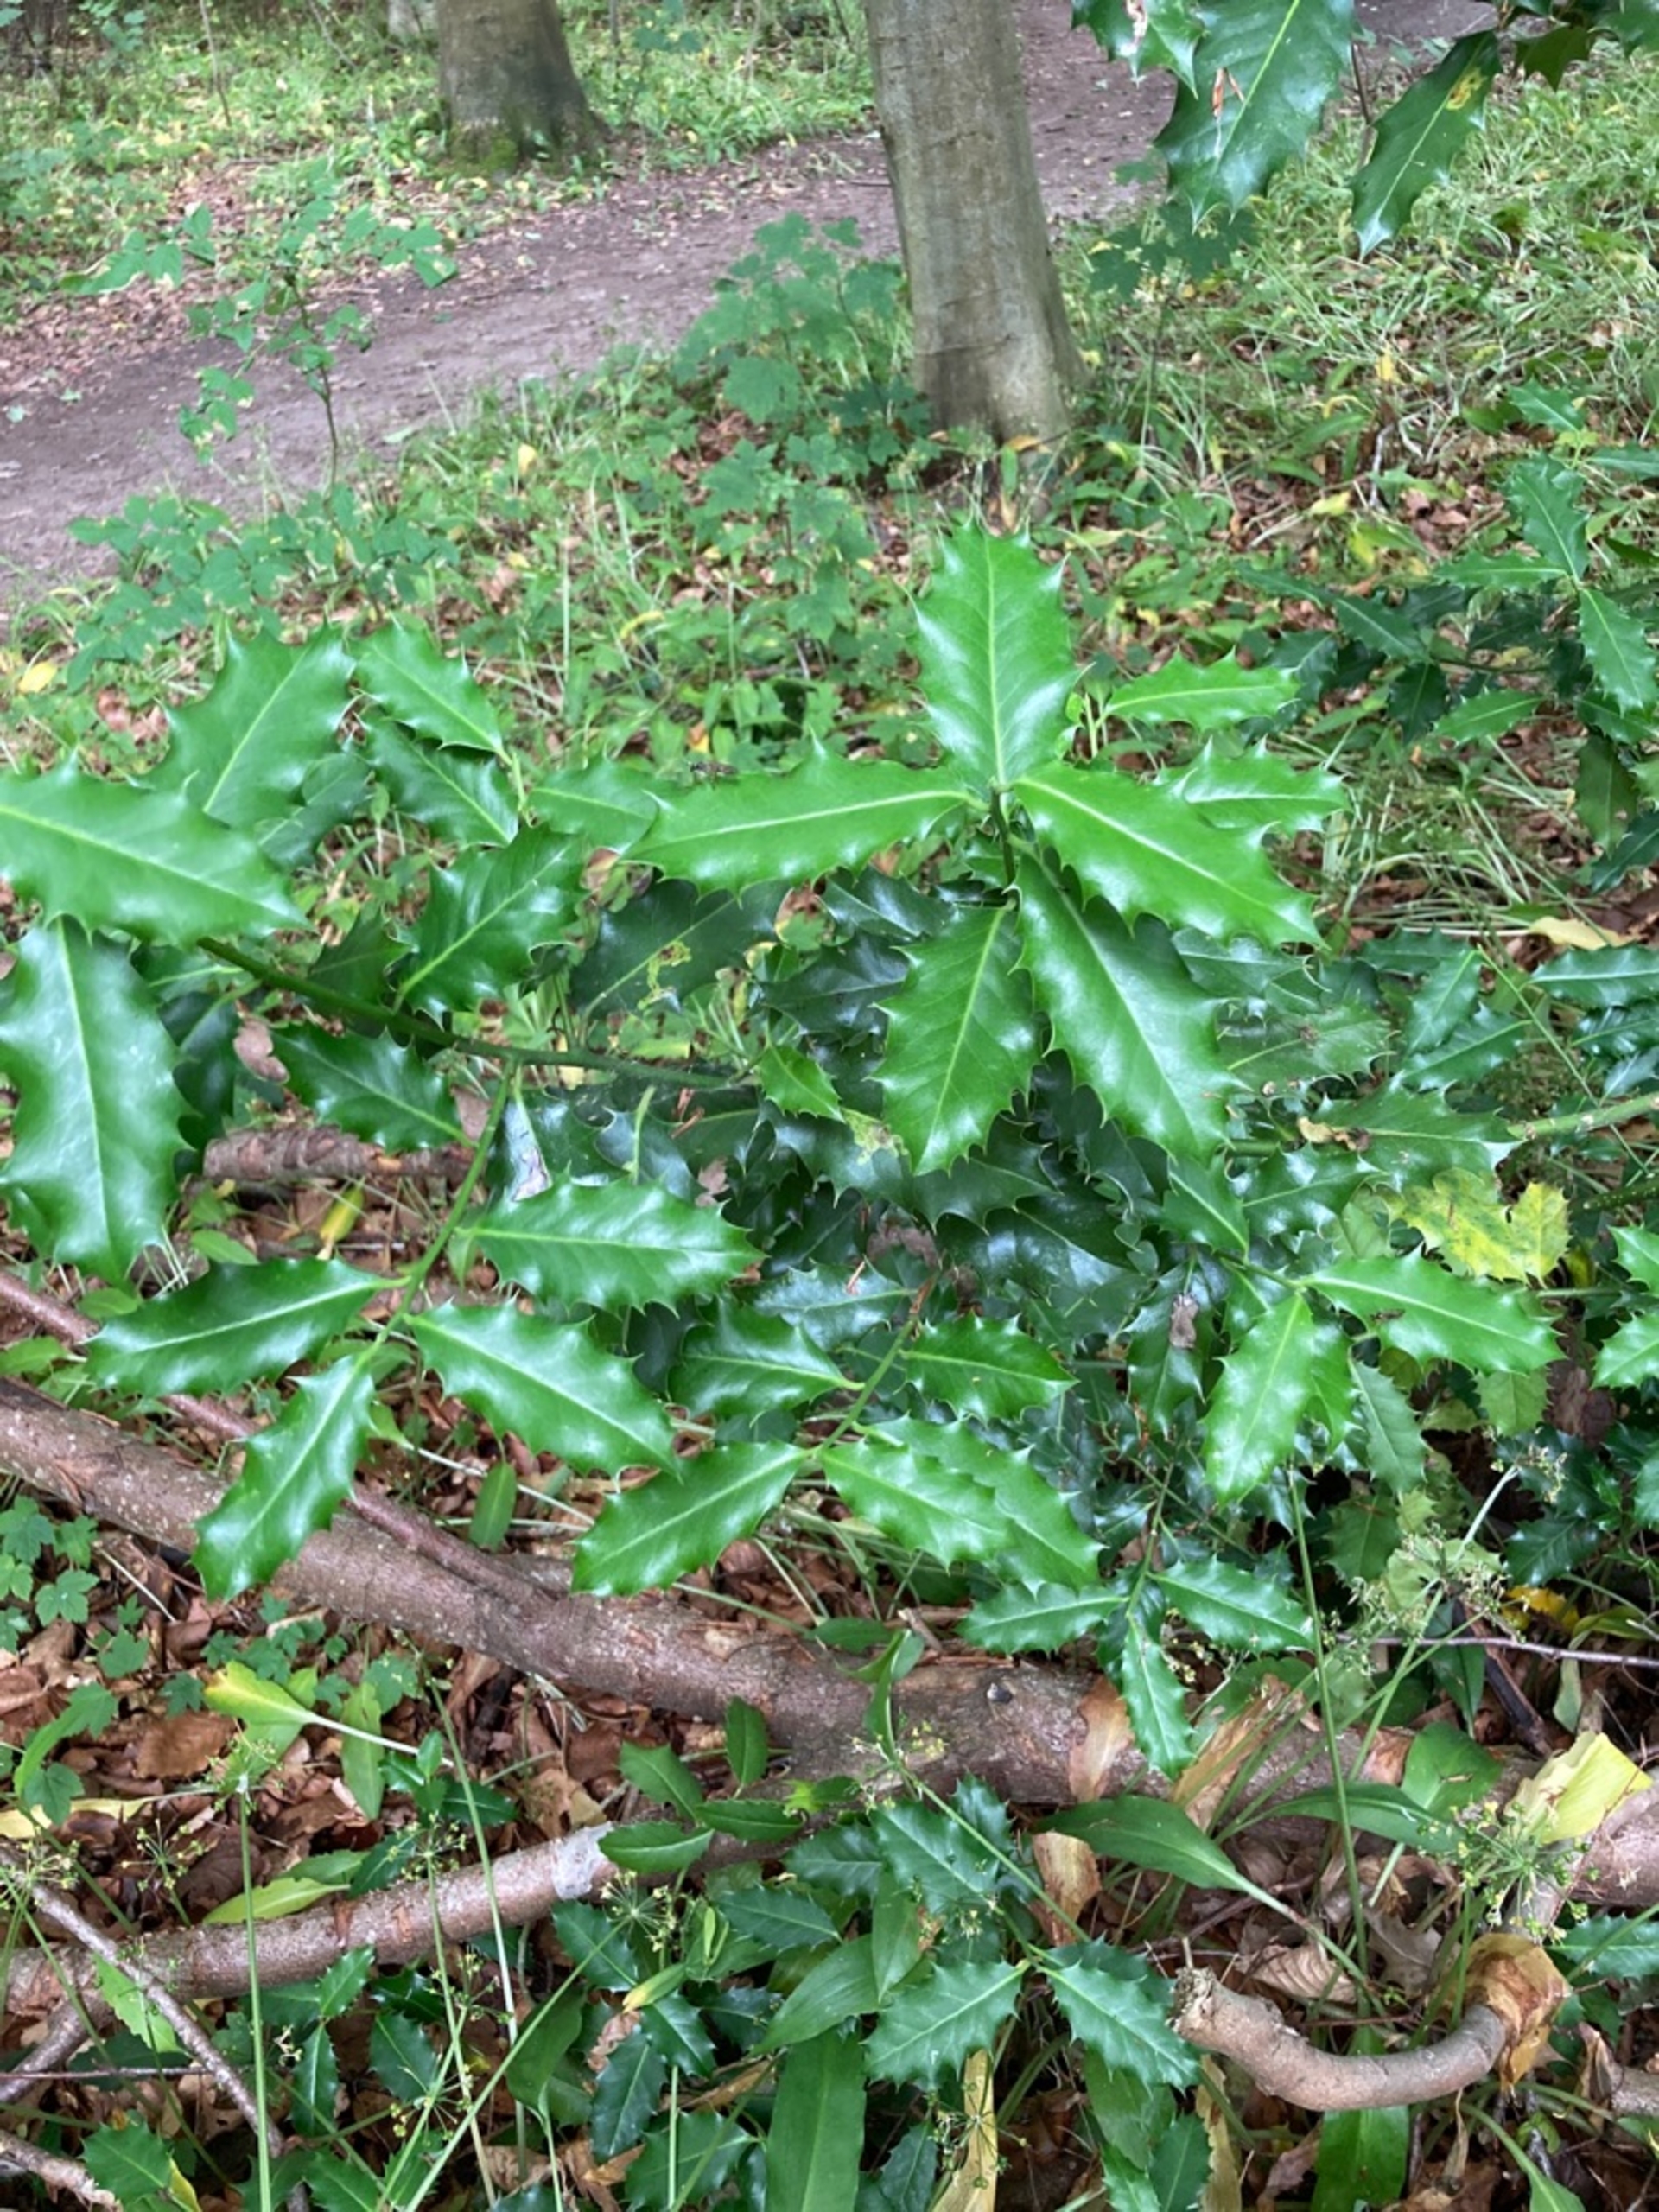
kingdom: Plantae
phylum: Tracheophyta
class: Magnoliopsida
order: Aquifoliales
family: Aquifoliaceae
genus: Ilex
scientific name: Ilex aquifolium
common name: Kristtorn
